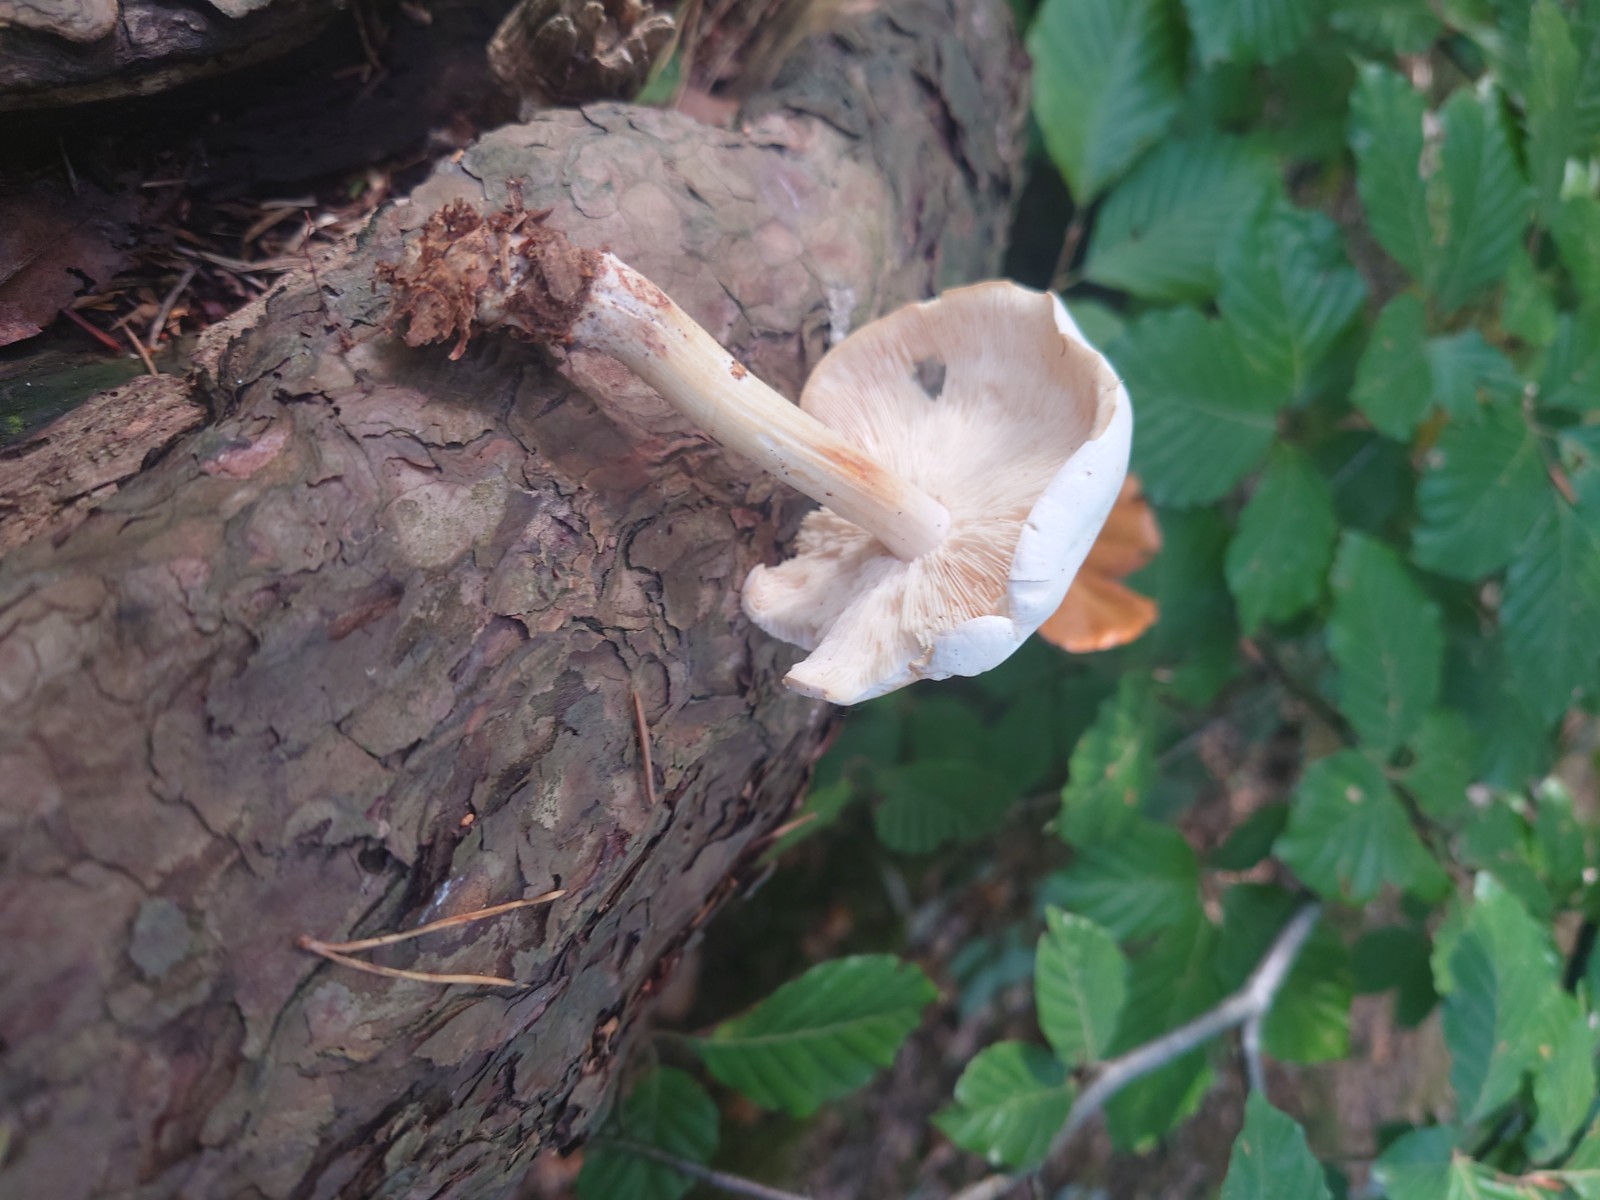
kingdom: Fungi
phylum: Basidiomycota
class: Agaricomycetes
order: Agaricales
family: Pluteaceae
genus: Pluteus
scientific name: Pluteus
